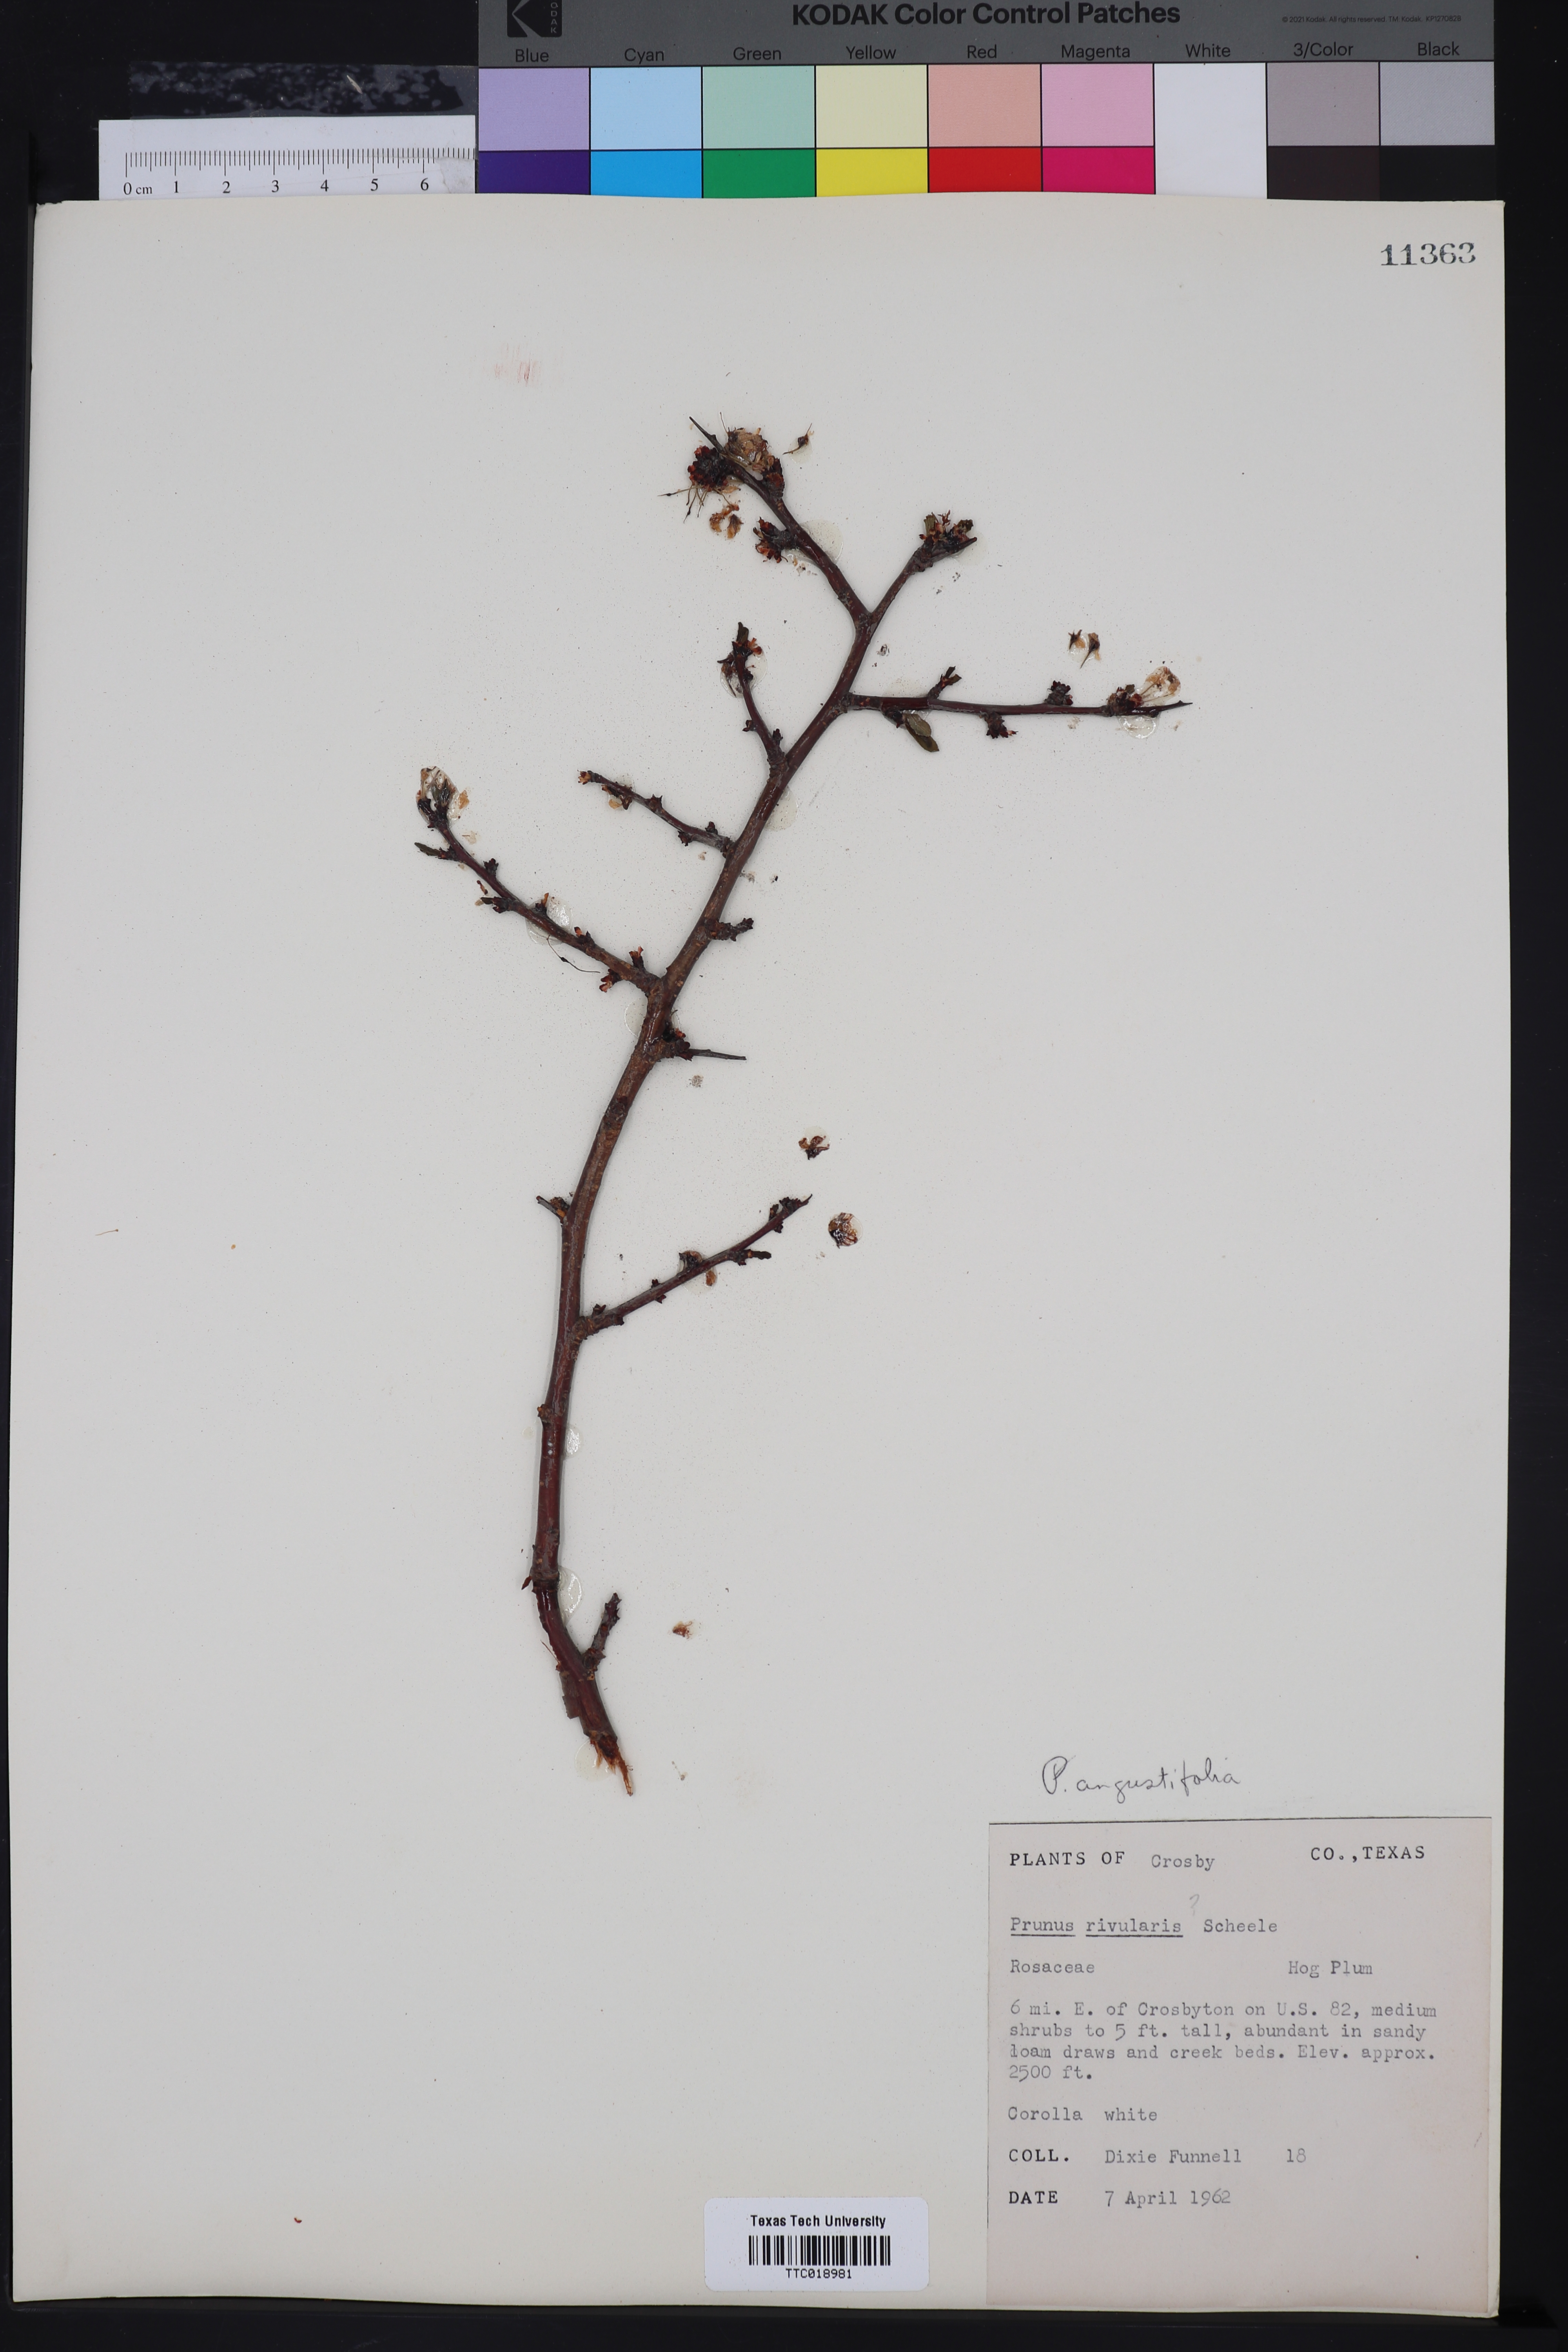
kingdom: Plantae
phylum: Tracheophyta
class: Magnoliopsida
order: Rosales
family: Rosaceae
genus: Prunus
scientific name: Prunus rivularis
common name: Creek plum
